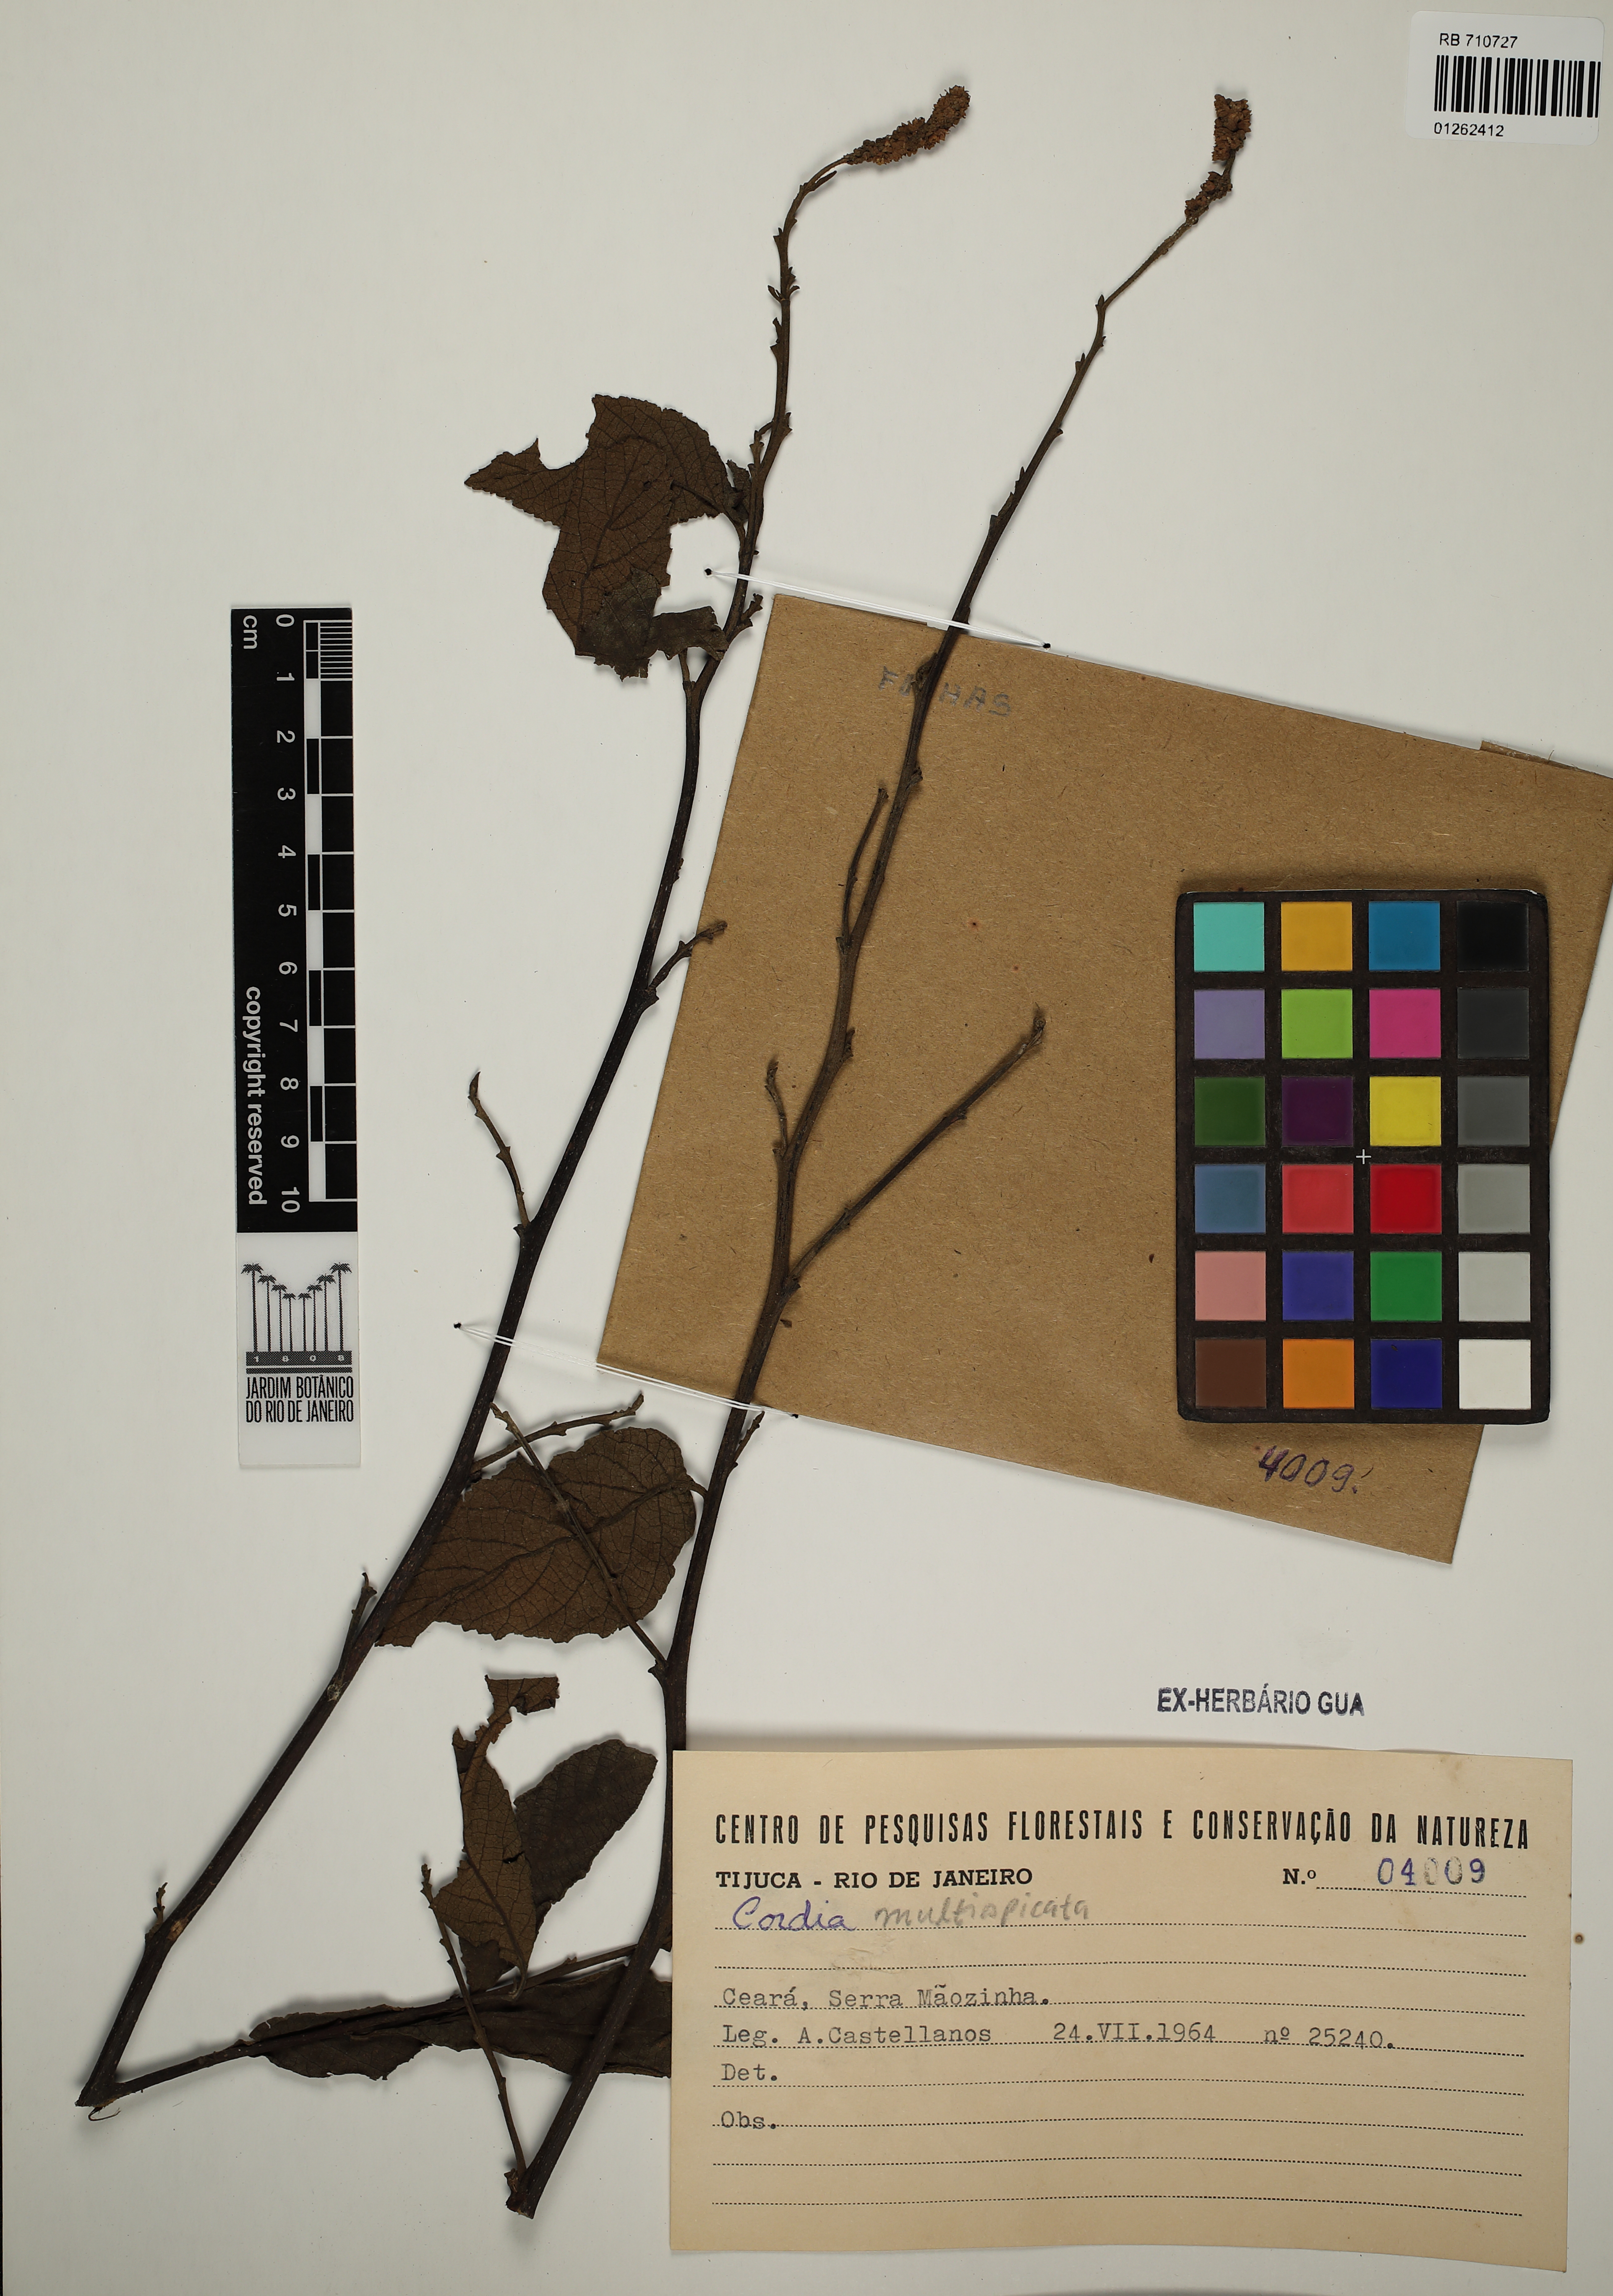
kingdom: Plantae
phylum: Tracheophyta
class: Magnoliopsida
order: Boraginales
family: Cordiaceae
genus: Varronia
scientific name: Varronia multispicata
